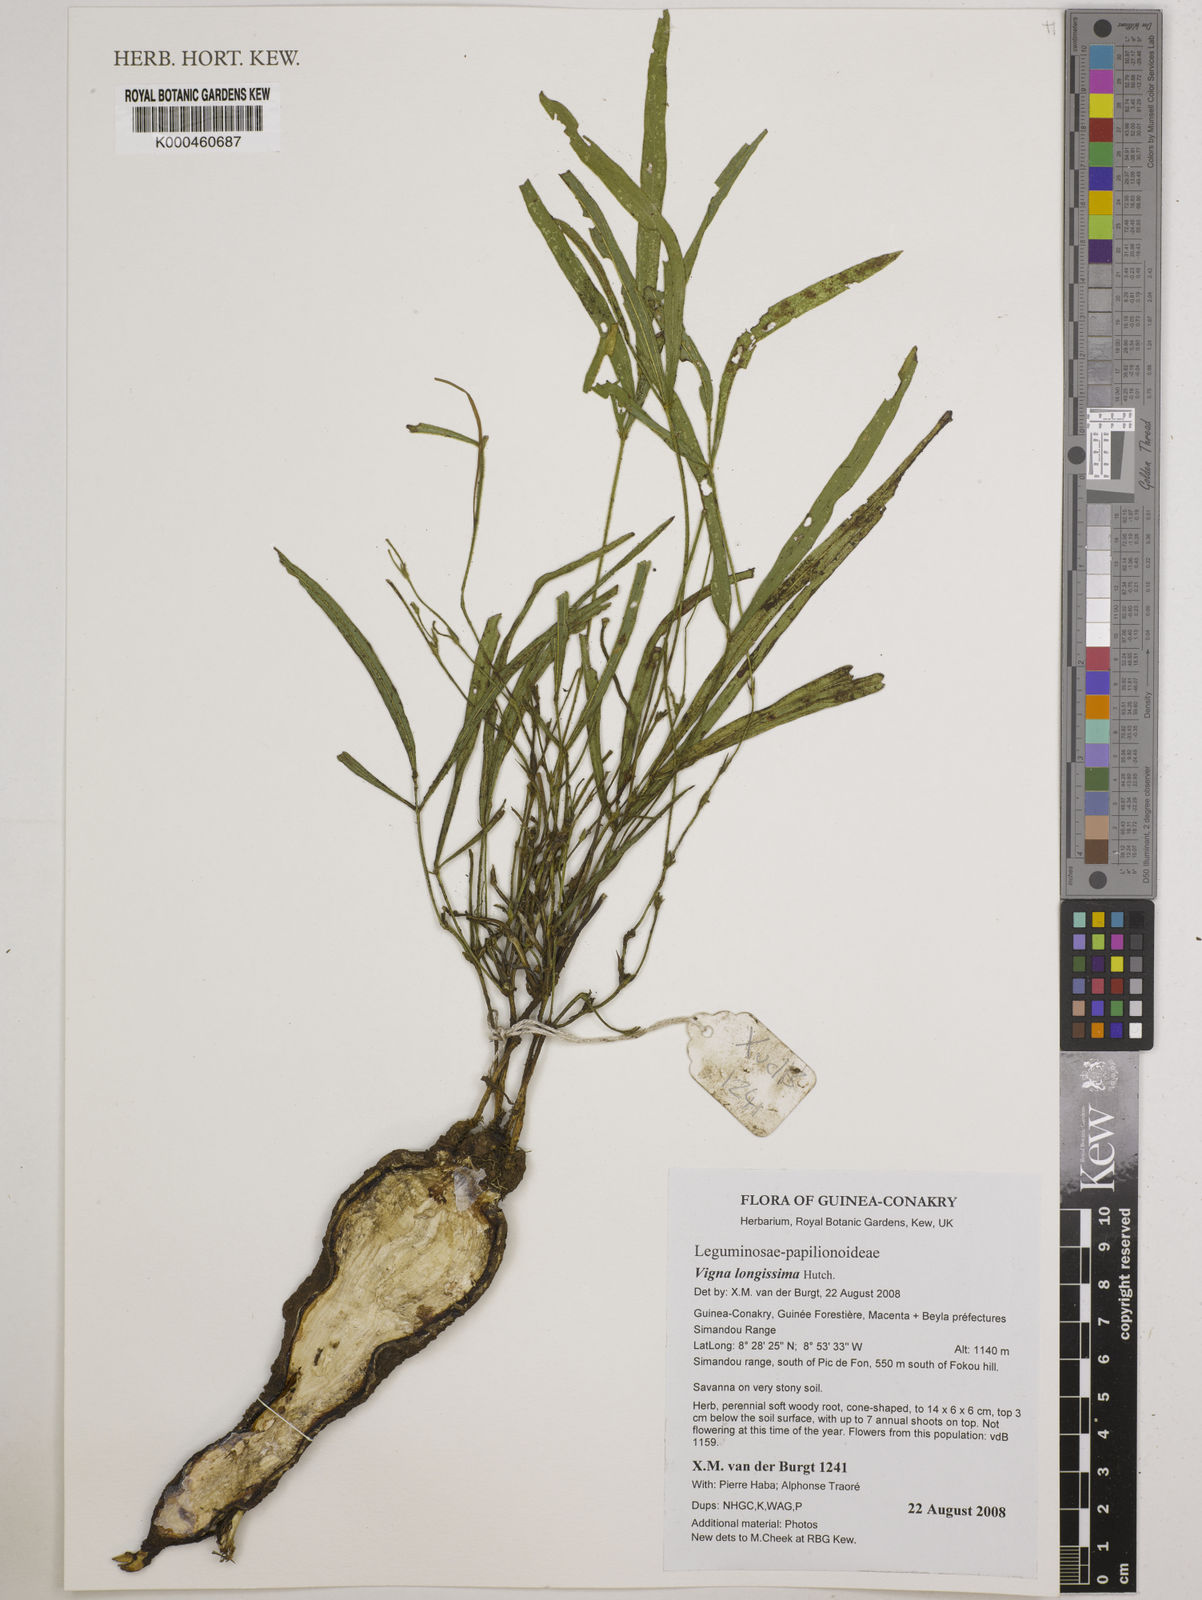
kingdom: Plantae
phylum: Tracheophyta
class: Magnoliopsida
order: Fabales
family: Fabaceae
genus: Vigna
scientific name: Vigna longissima
